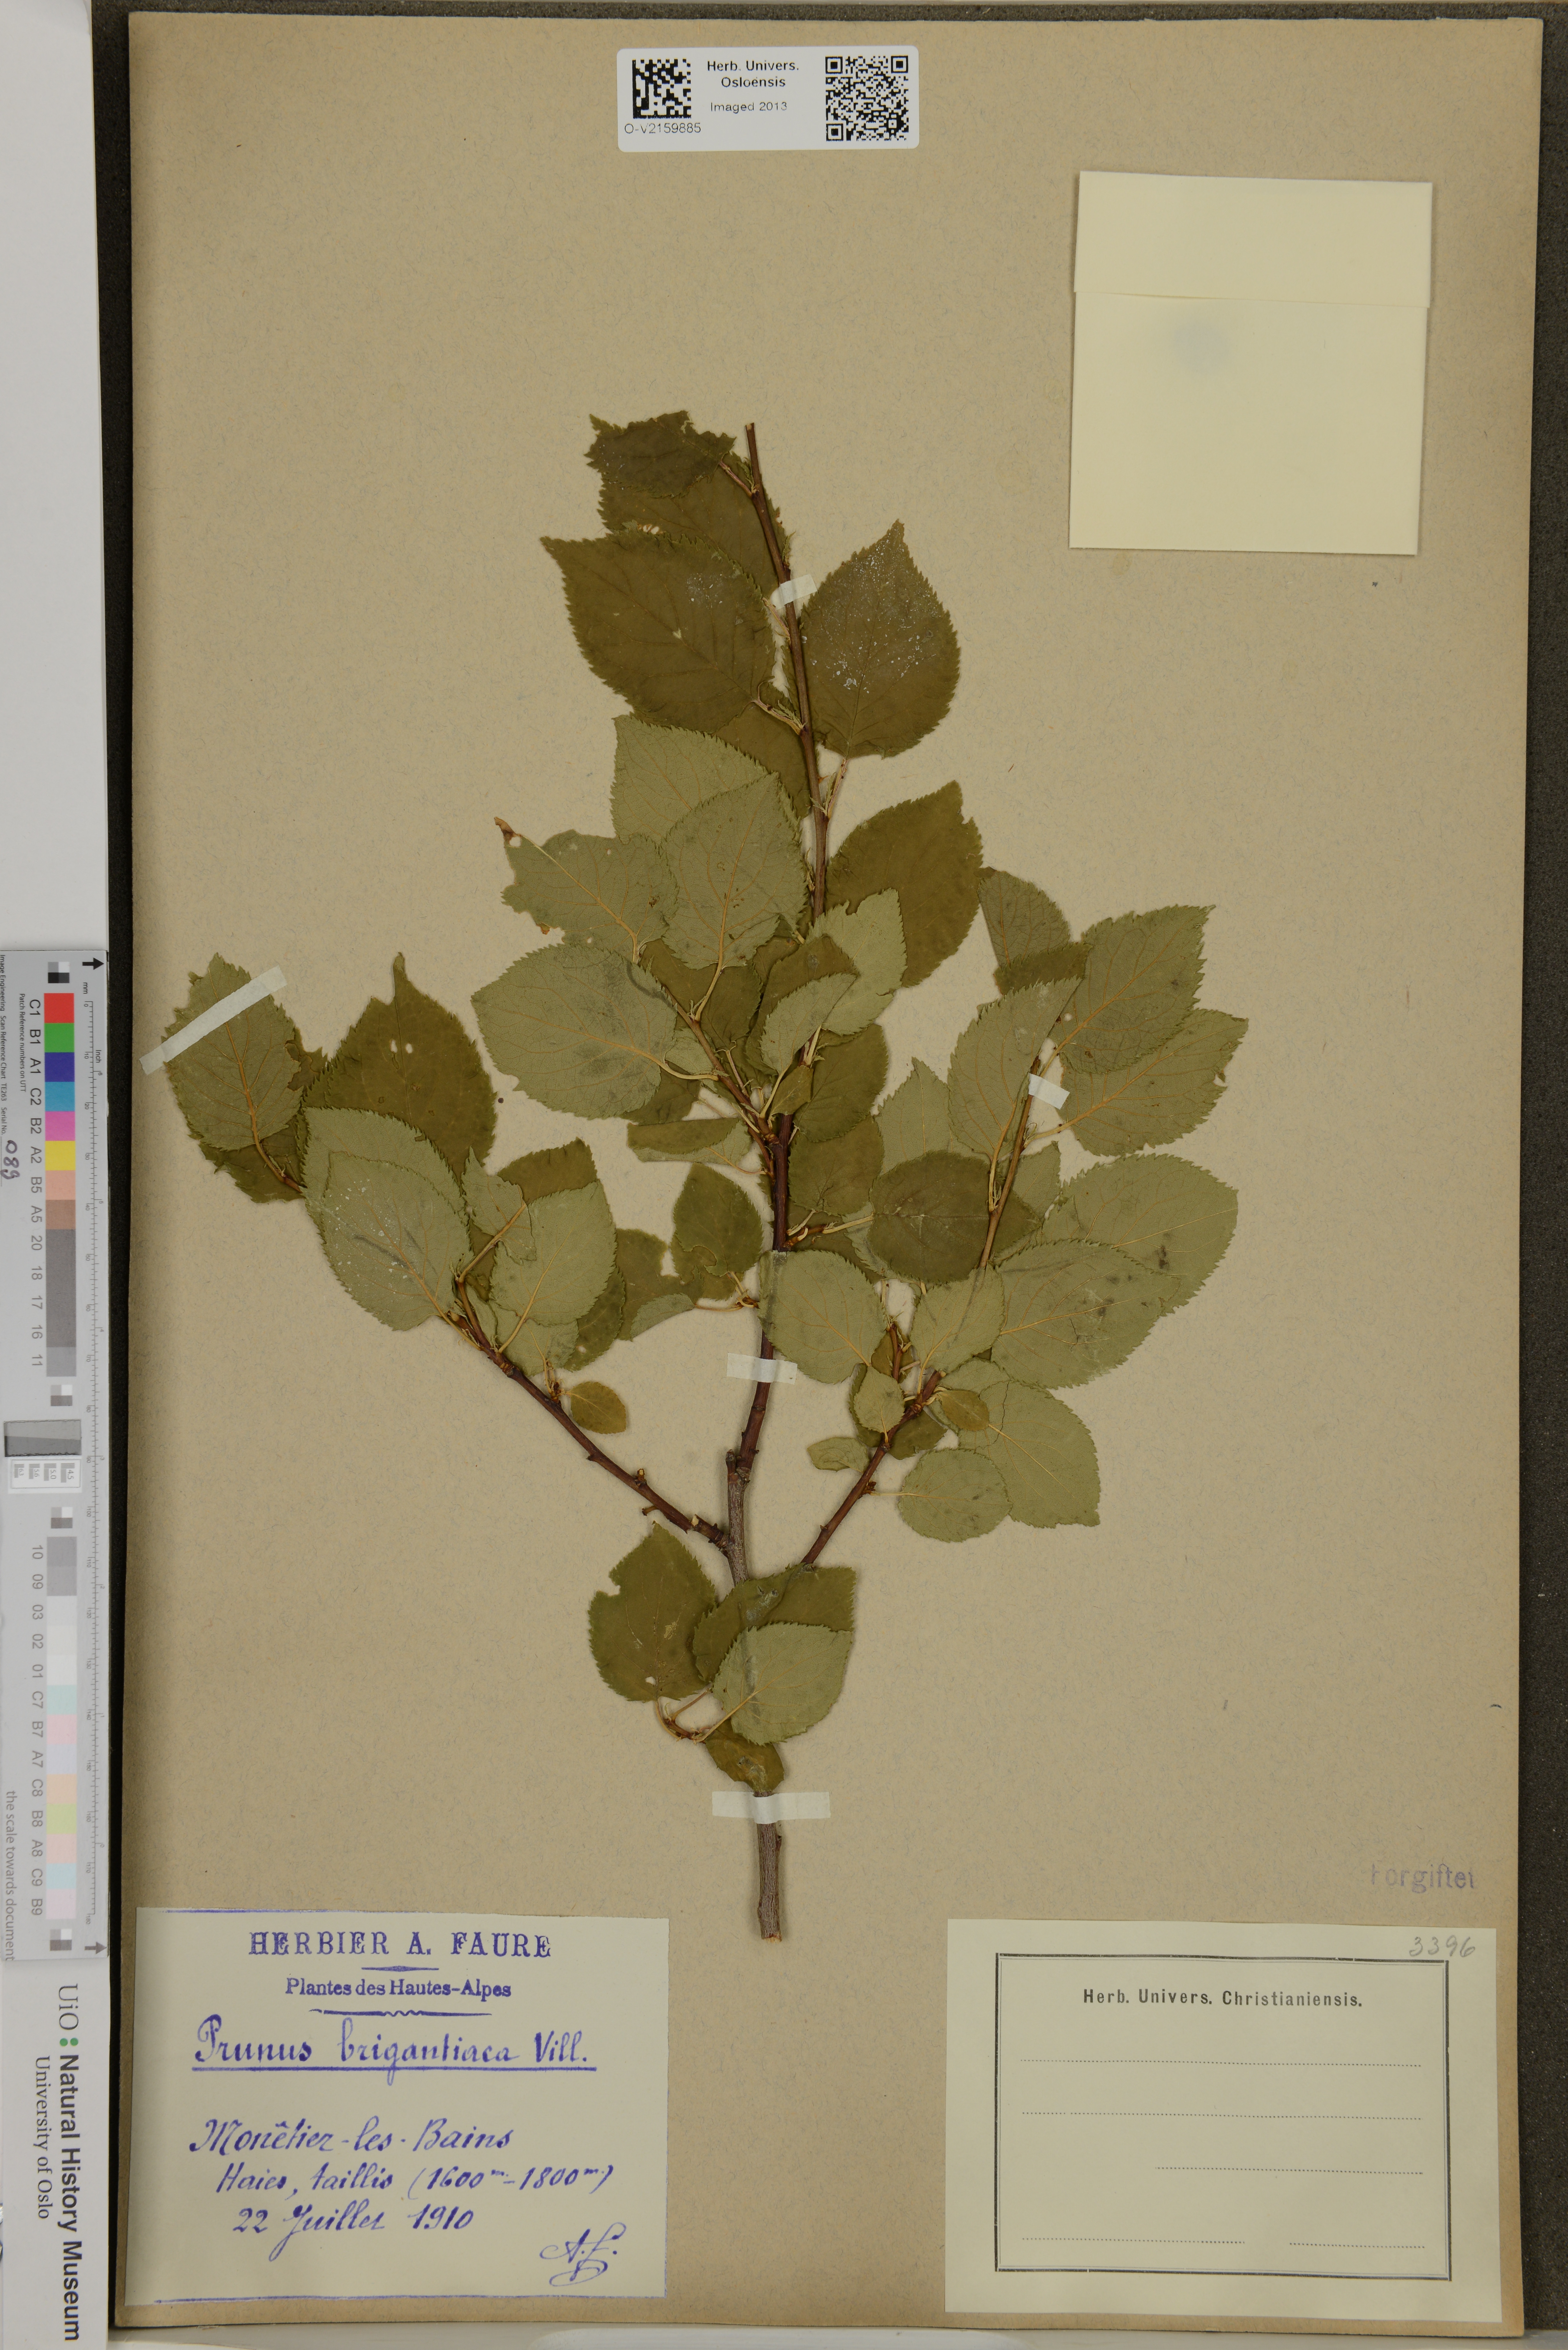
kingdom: Plantae
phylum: Tracheophyta
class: Magnoliopsida
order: Rosales
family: Rosaceae
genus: Prunus
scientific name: Prunus brigantina
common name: Briançon apricot
